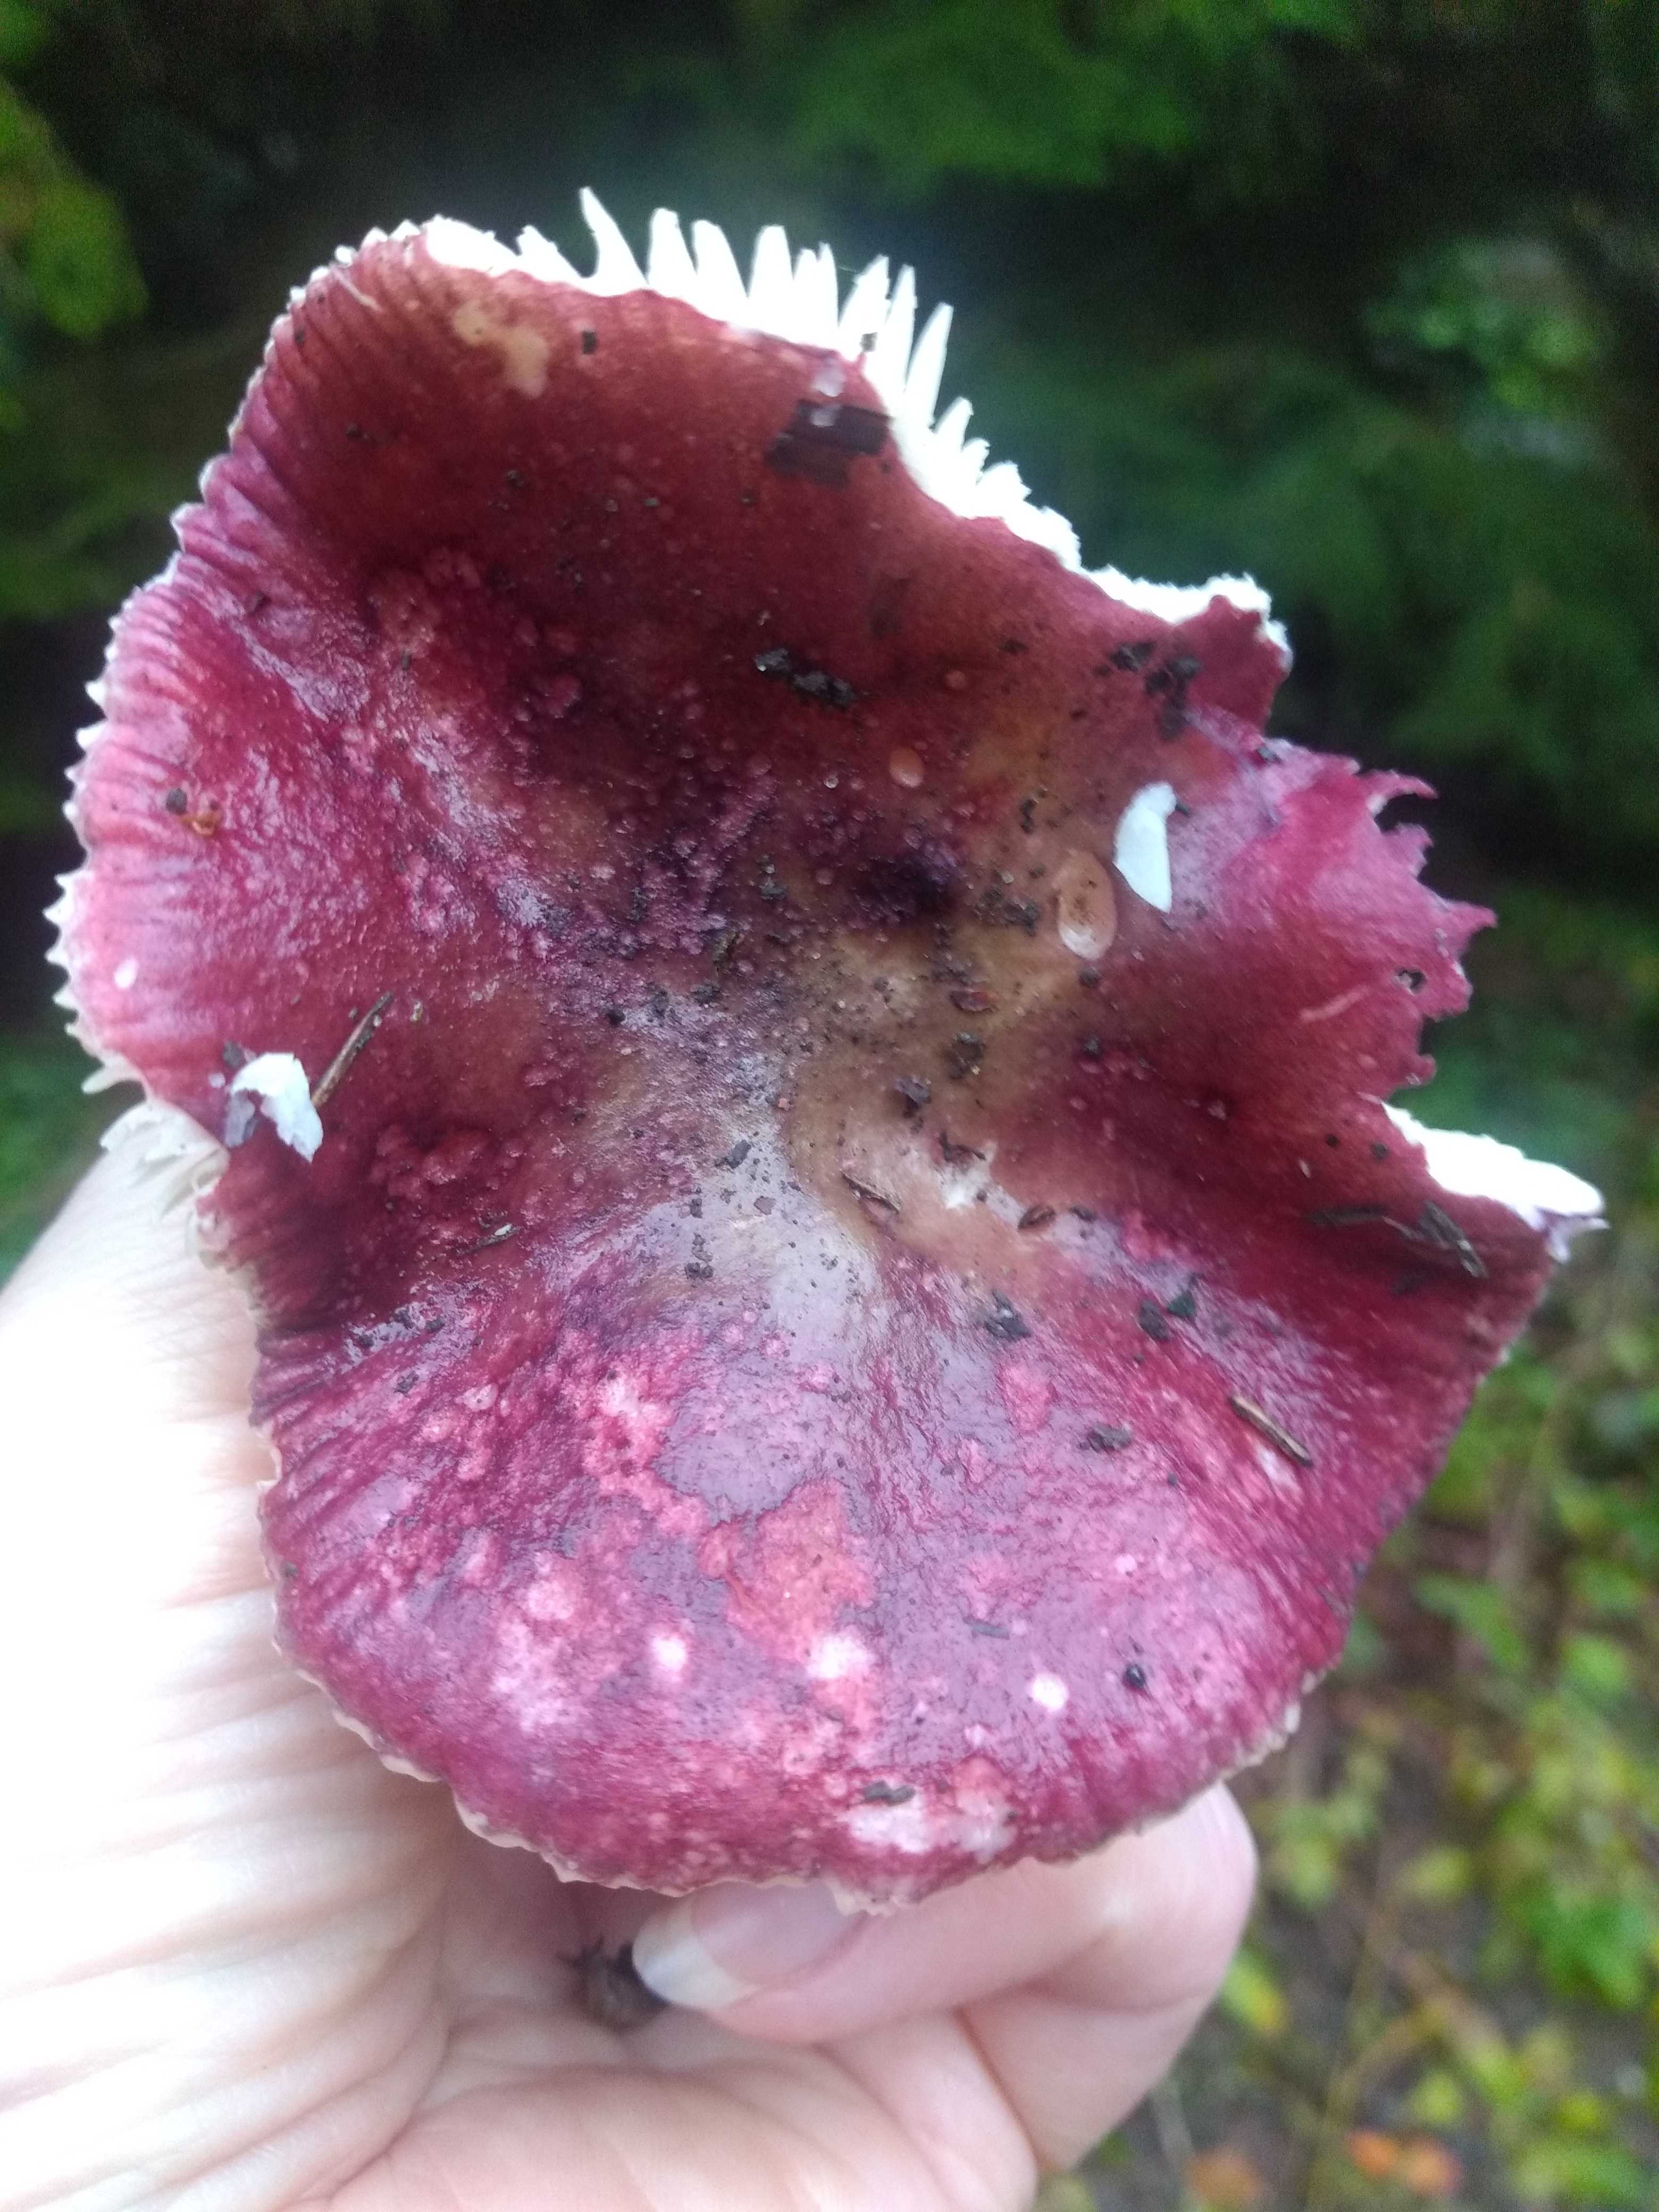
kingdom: Fungi
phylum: Basidiomycota
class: Agaricomycetes
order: Russulales
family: Russulaceae
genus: Russula
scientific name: Russula queletii
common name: Quélets skørhat
